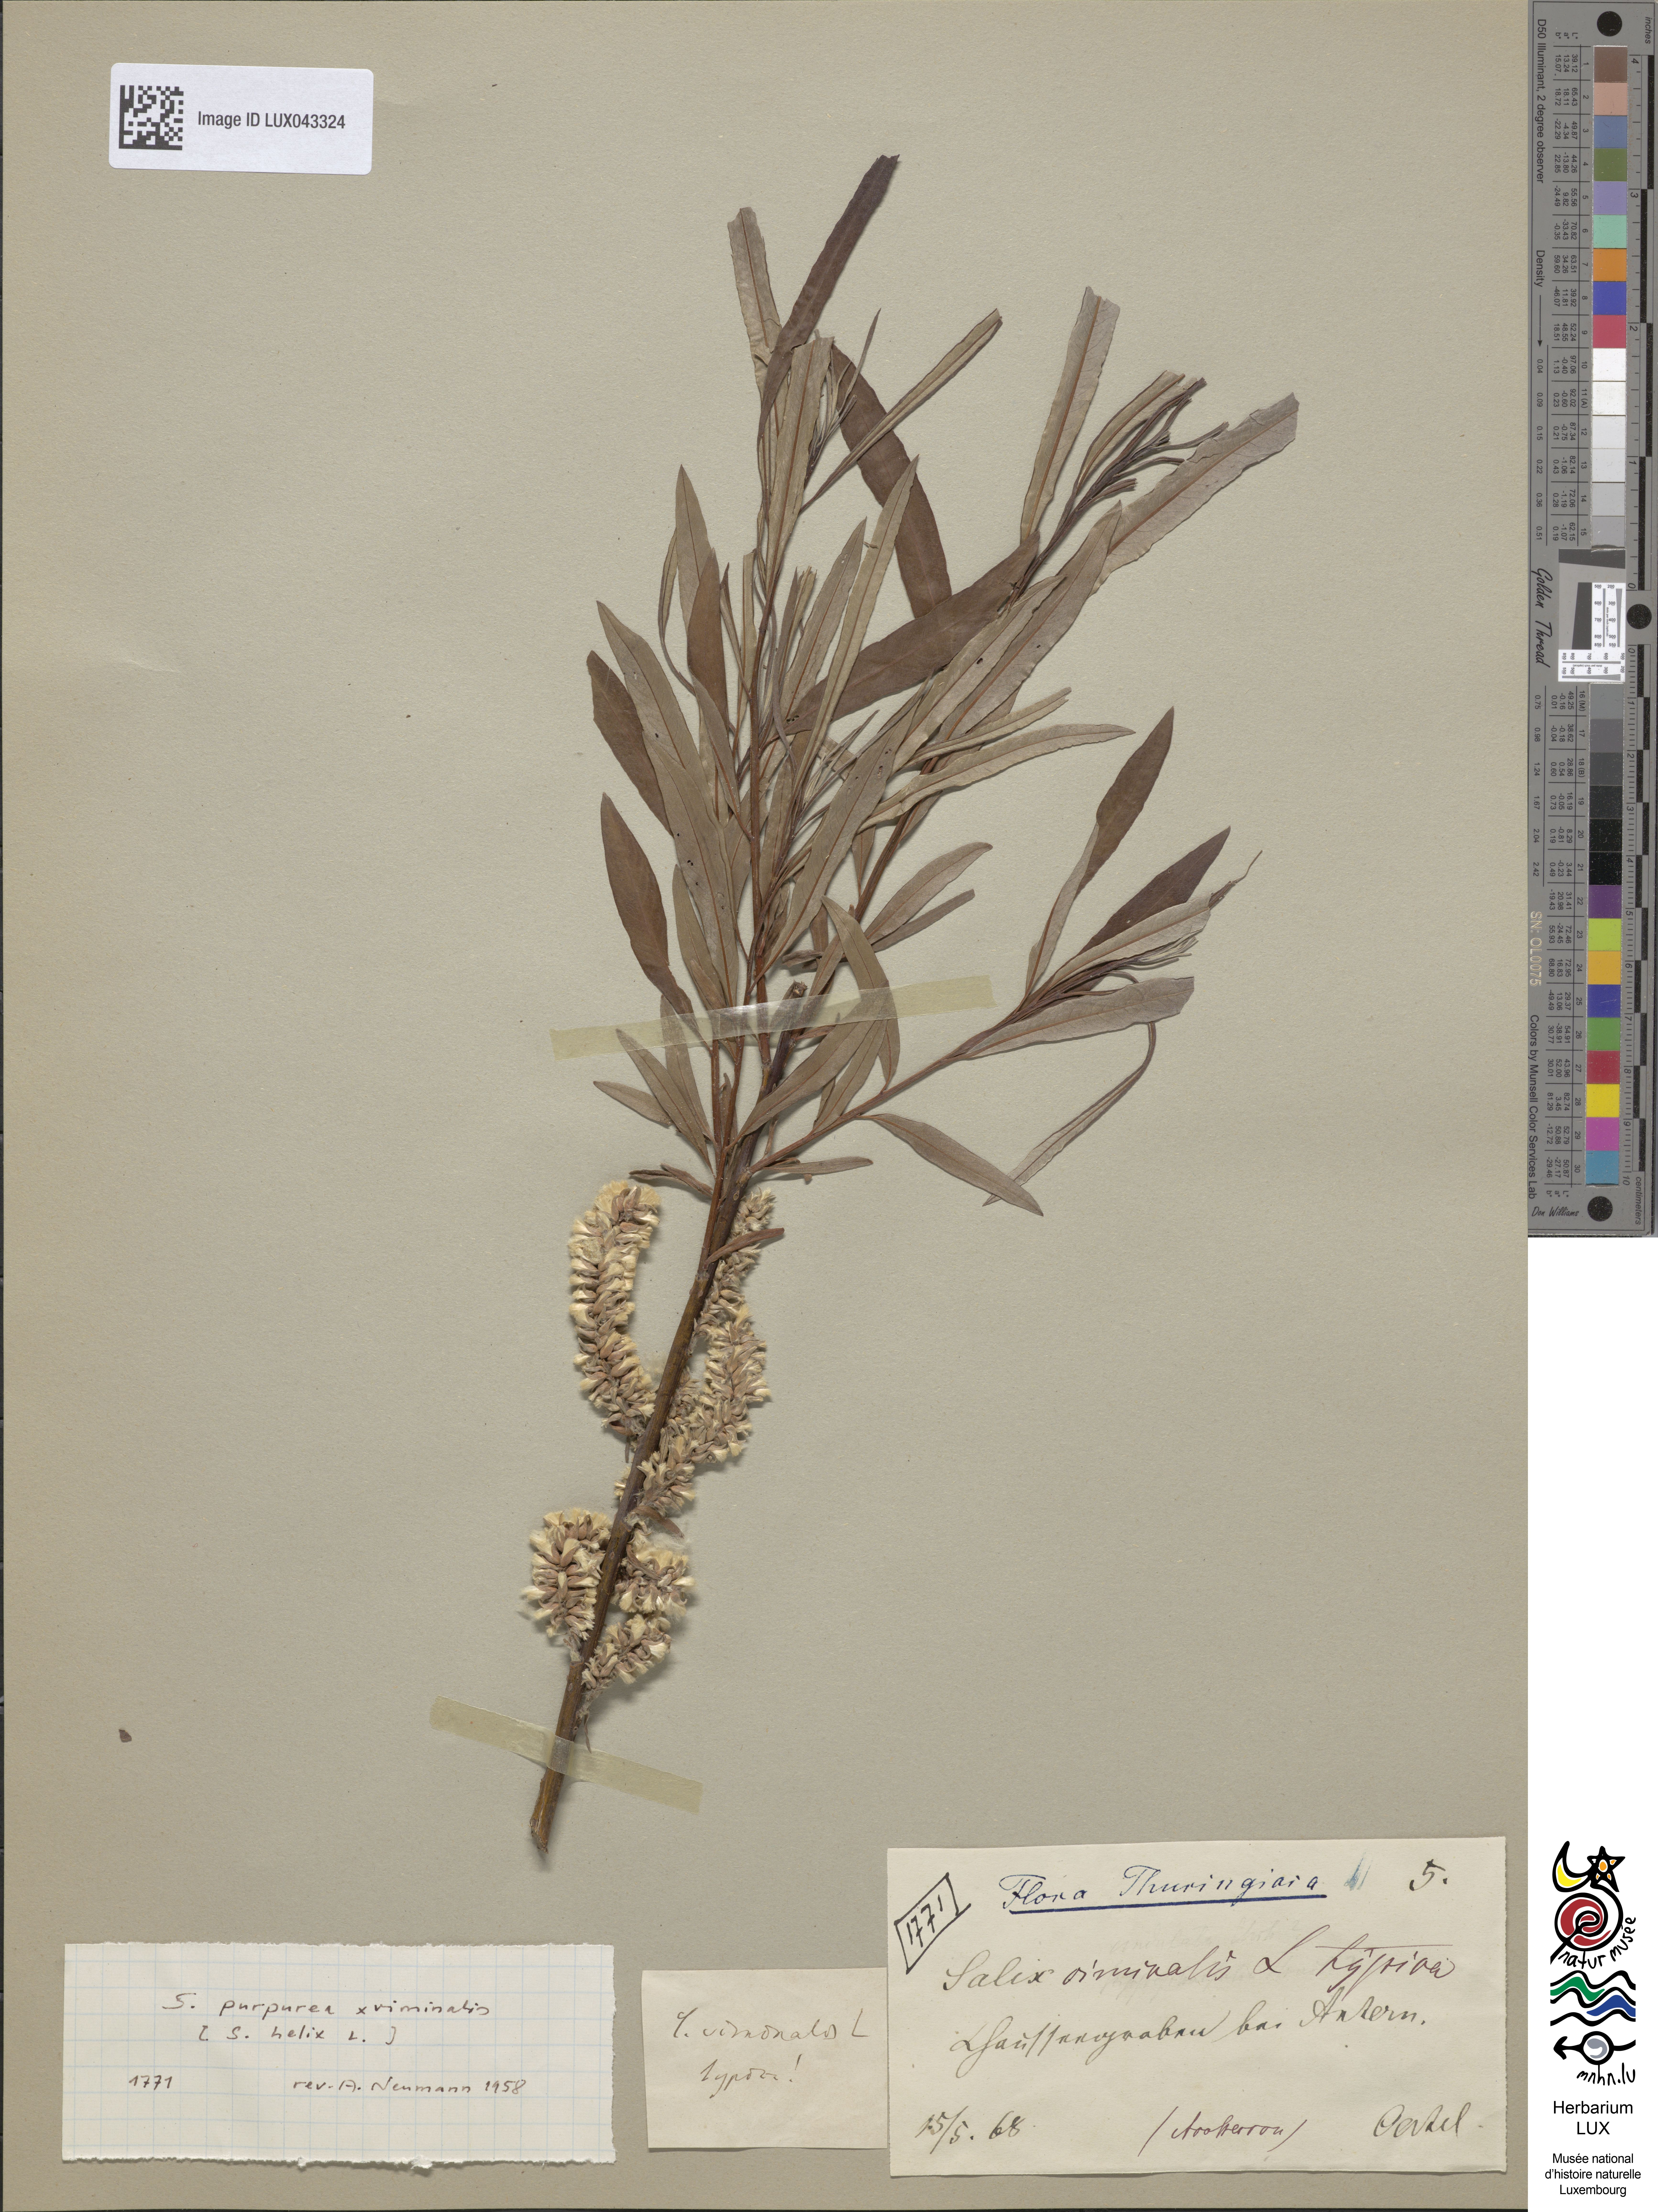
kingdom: Plantae
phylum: Tracheophyta
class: Magnoliopsida
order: Malpighiales
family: Salicaceae
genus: Salix
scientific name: Salix
